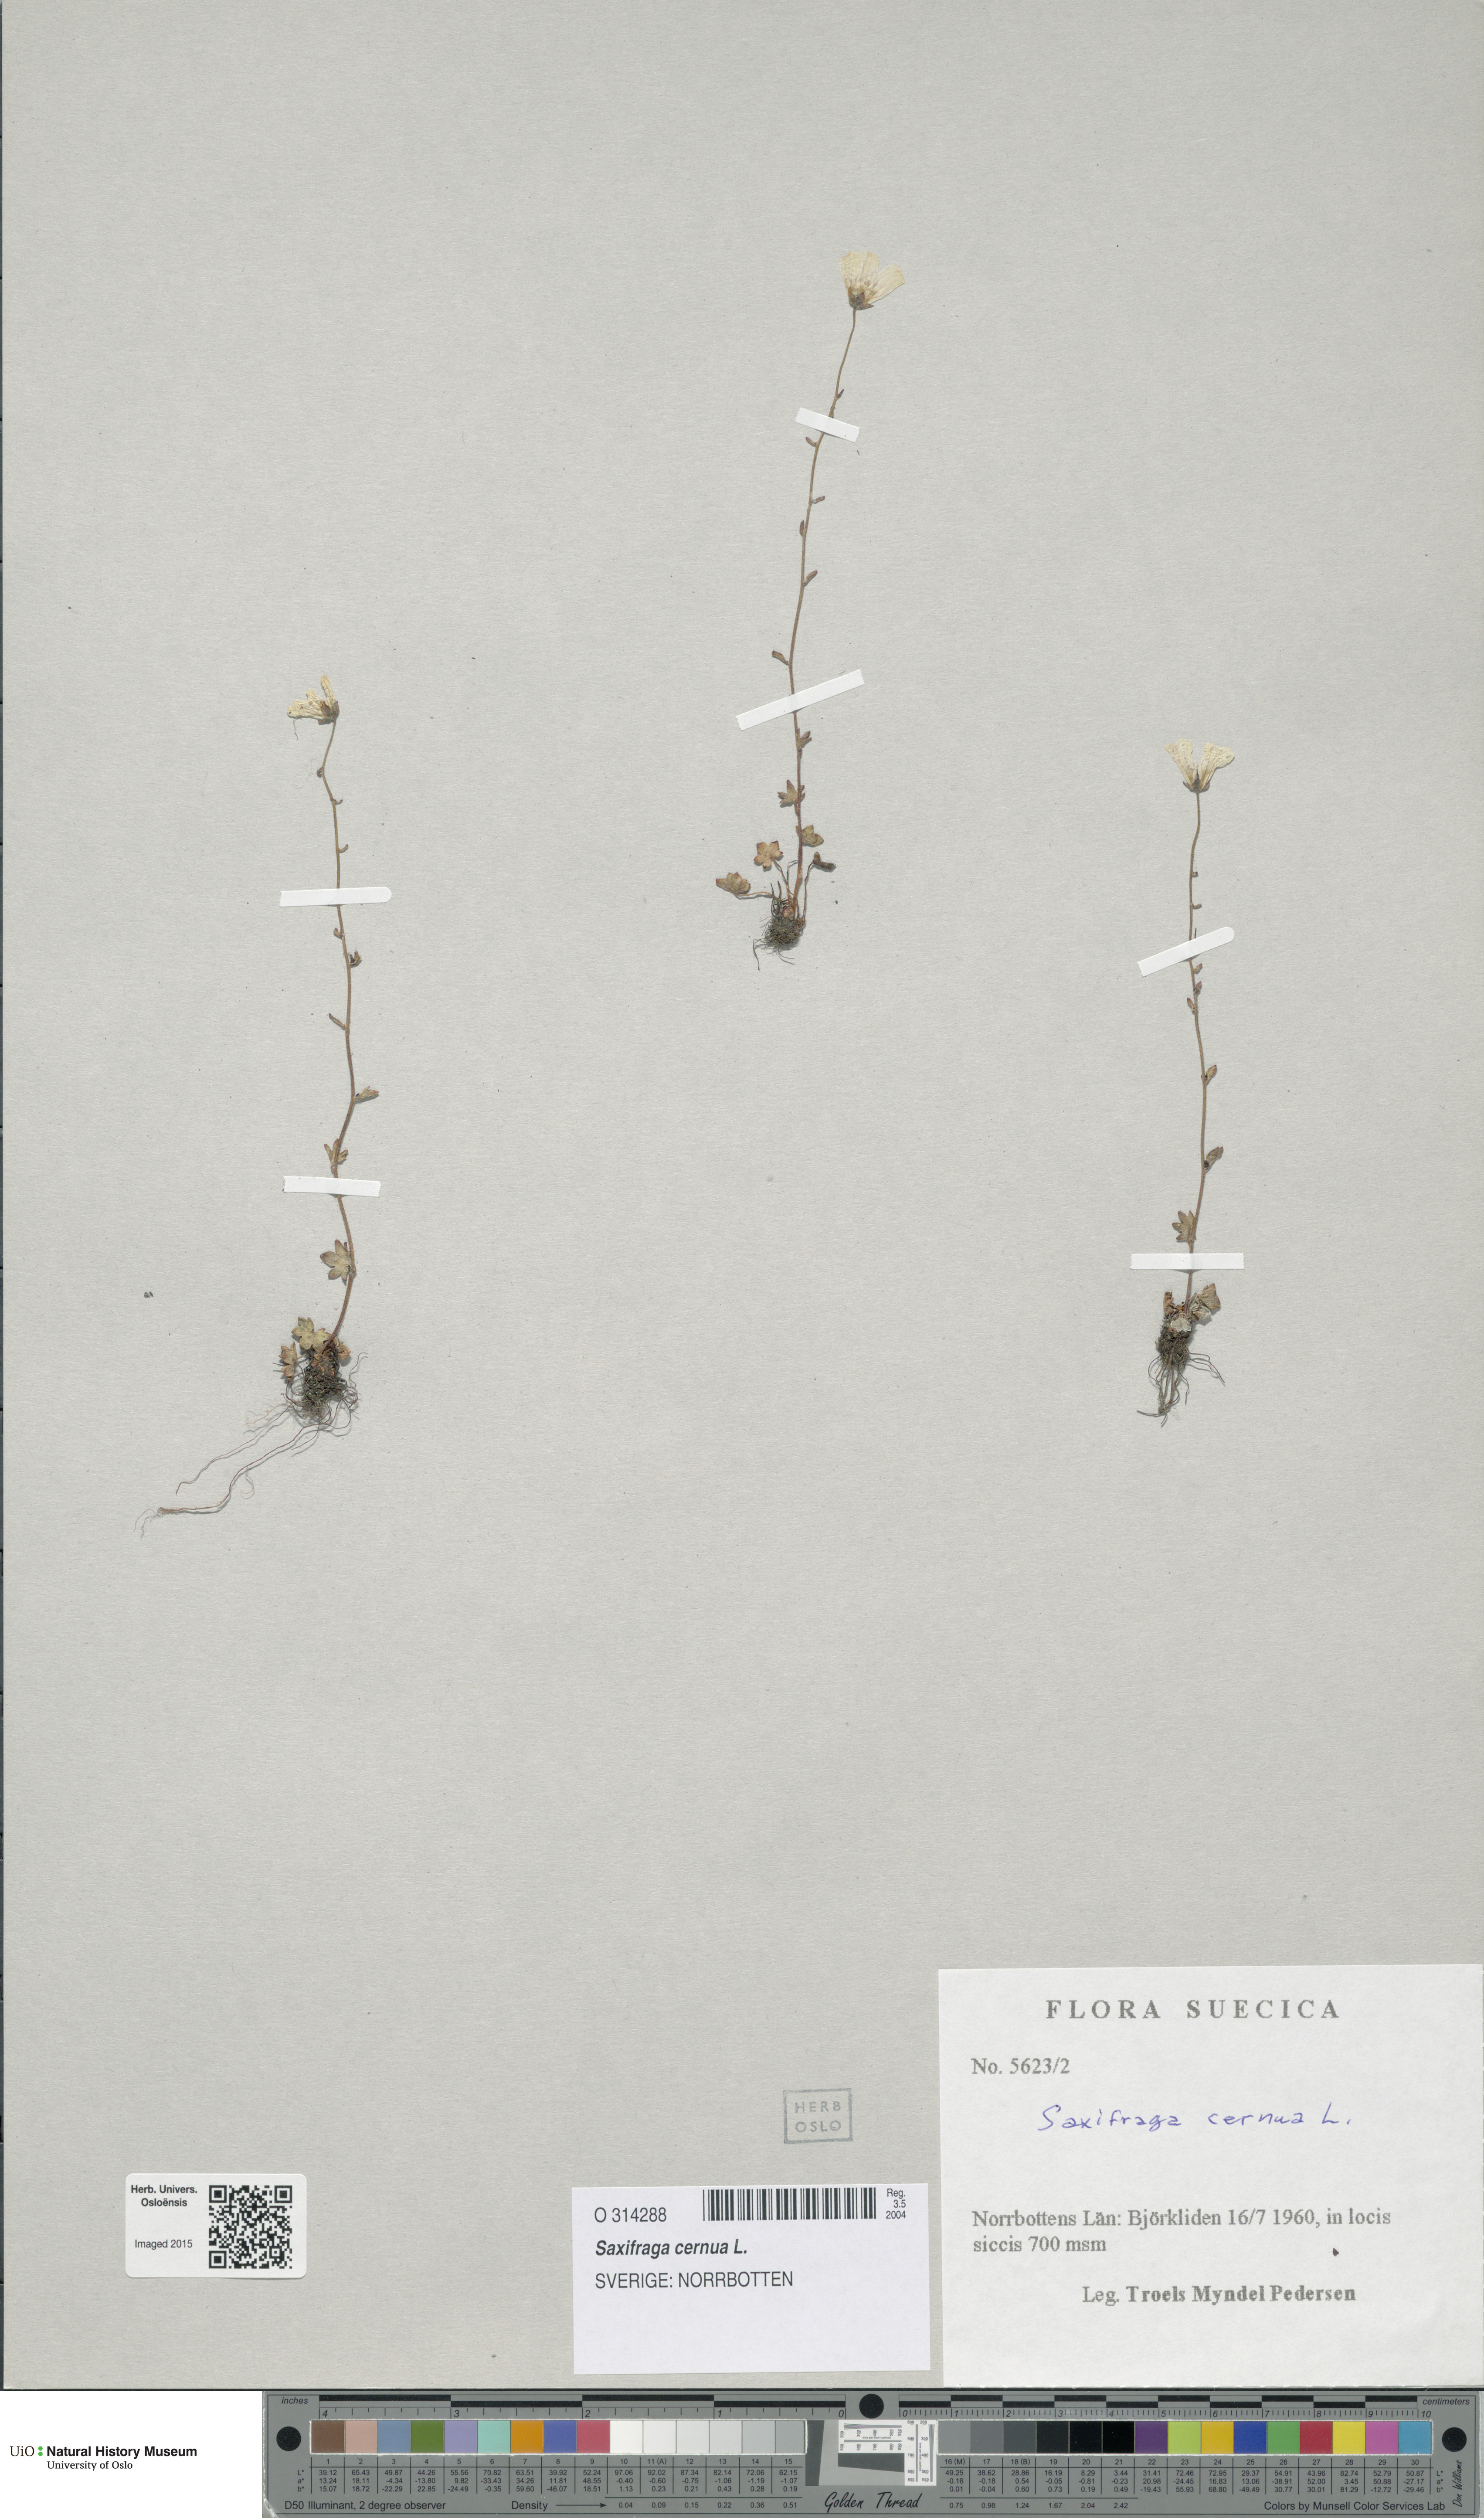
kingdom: Plantae
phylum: Tracheophyta
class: Magnoliopsida
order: Saxifragales
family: Saxifragaceae
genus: Saxifraga
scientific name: Saxifraga cernua
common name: Drooping saxifrage
